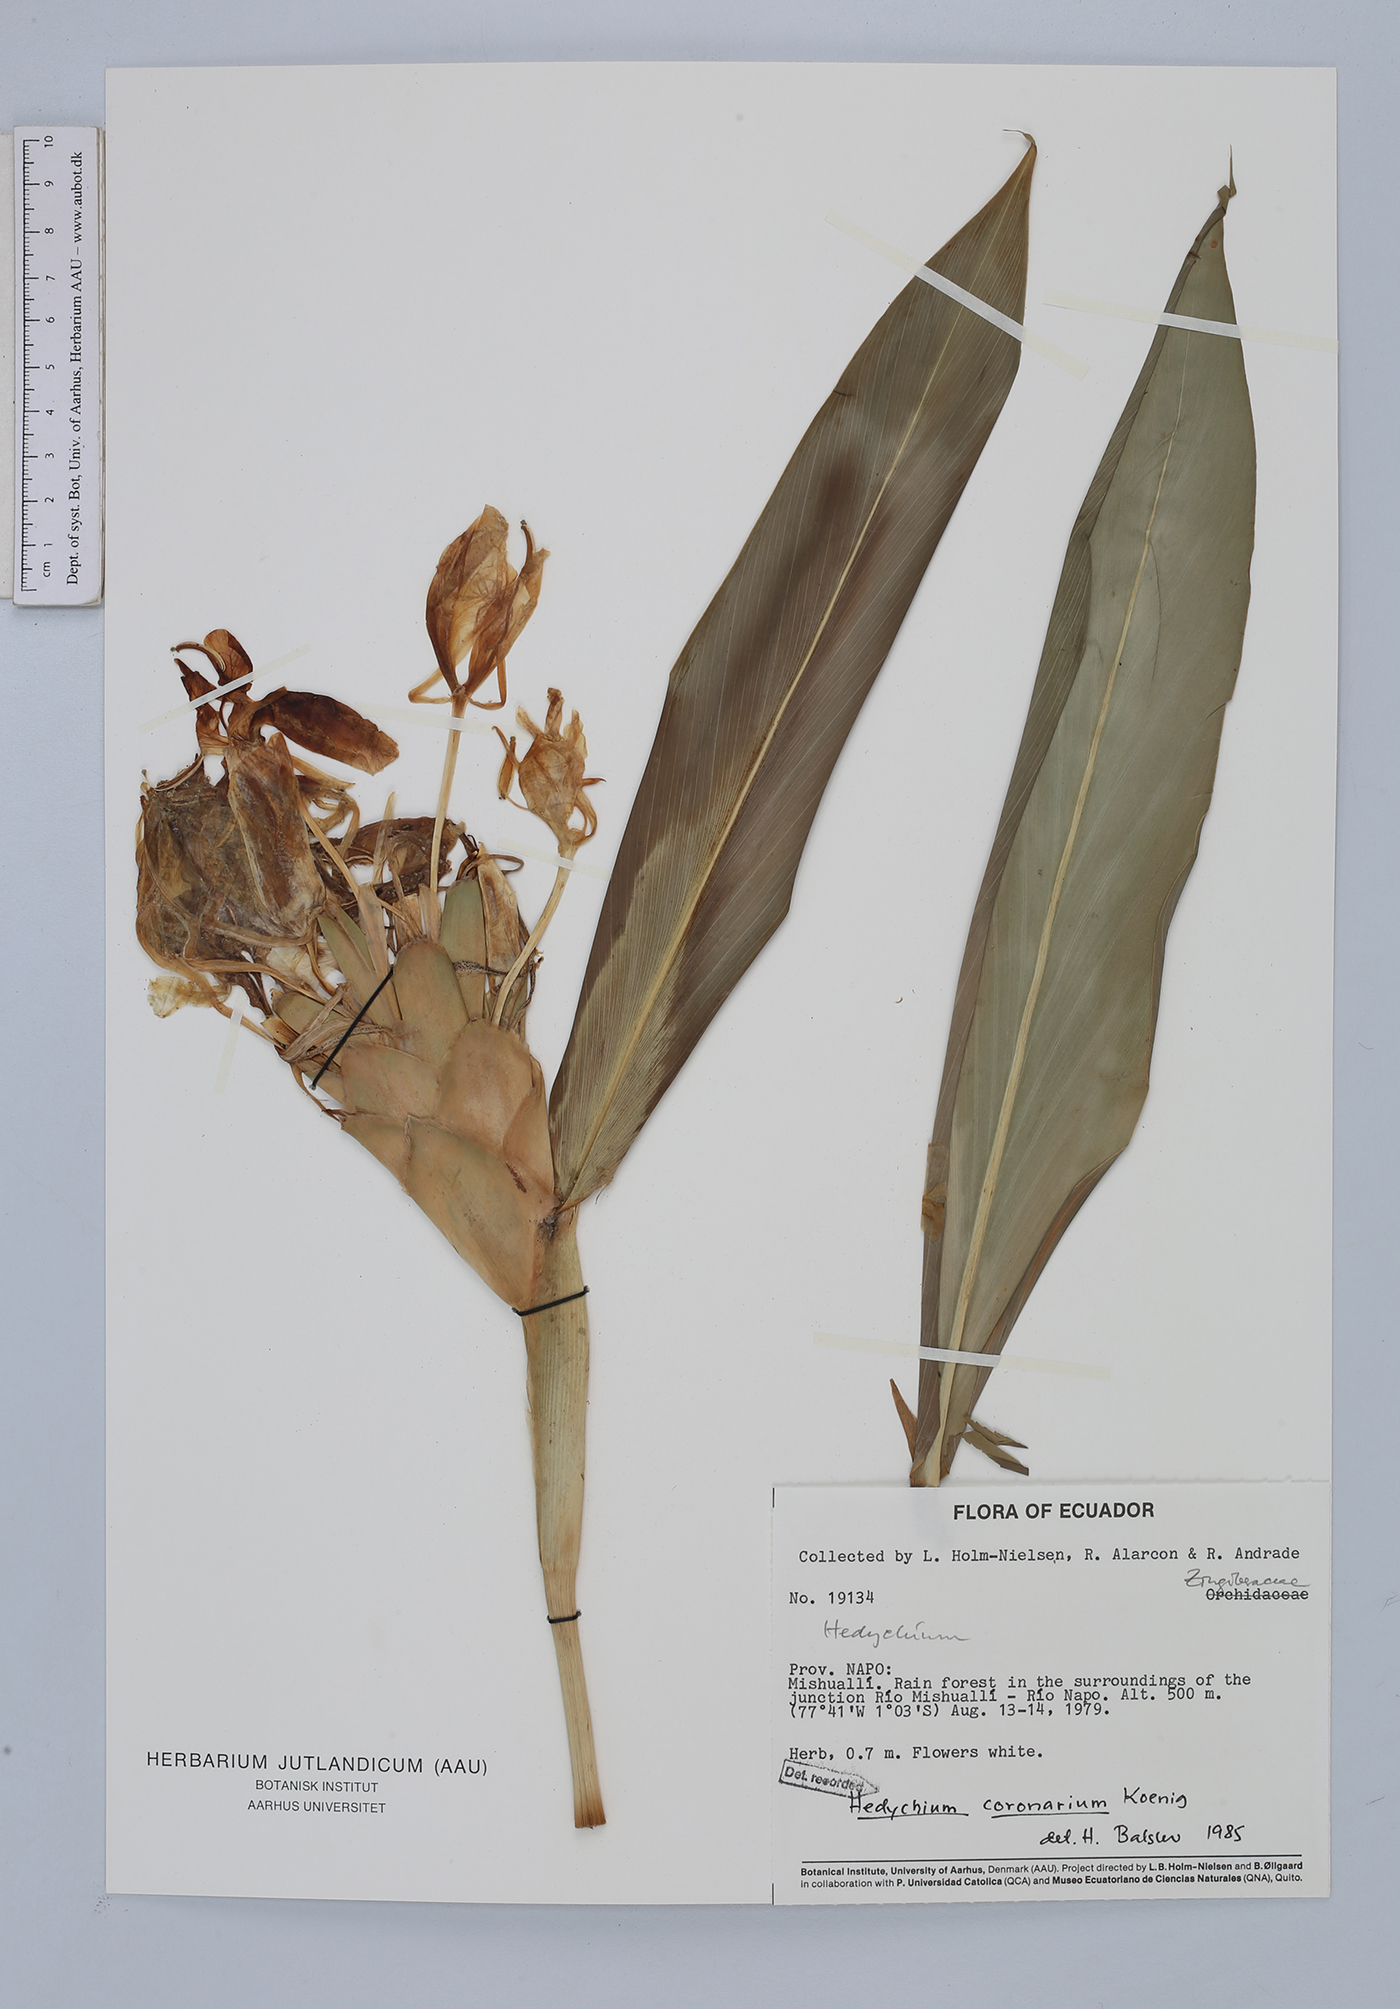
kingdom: Plantae
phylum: Tracheophyta
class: Liliopsida
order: Zingiberales
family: Zingiberaceae
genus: Hedychium
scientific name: Hedychium coronarium
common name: White garland-lily
